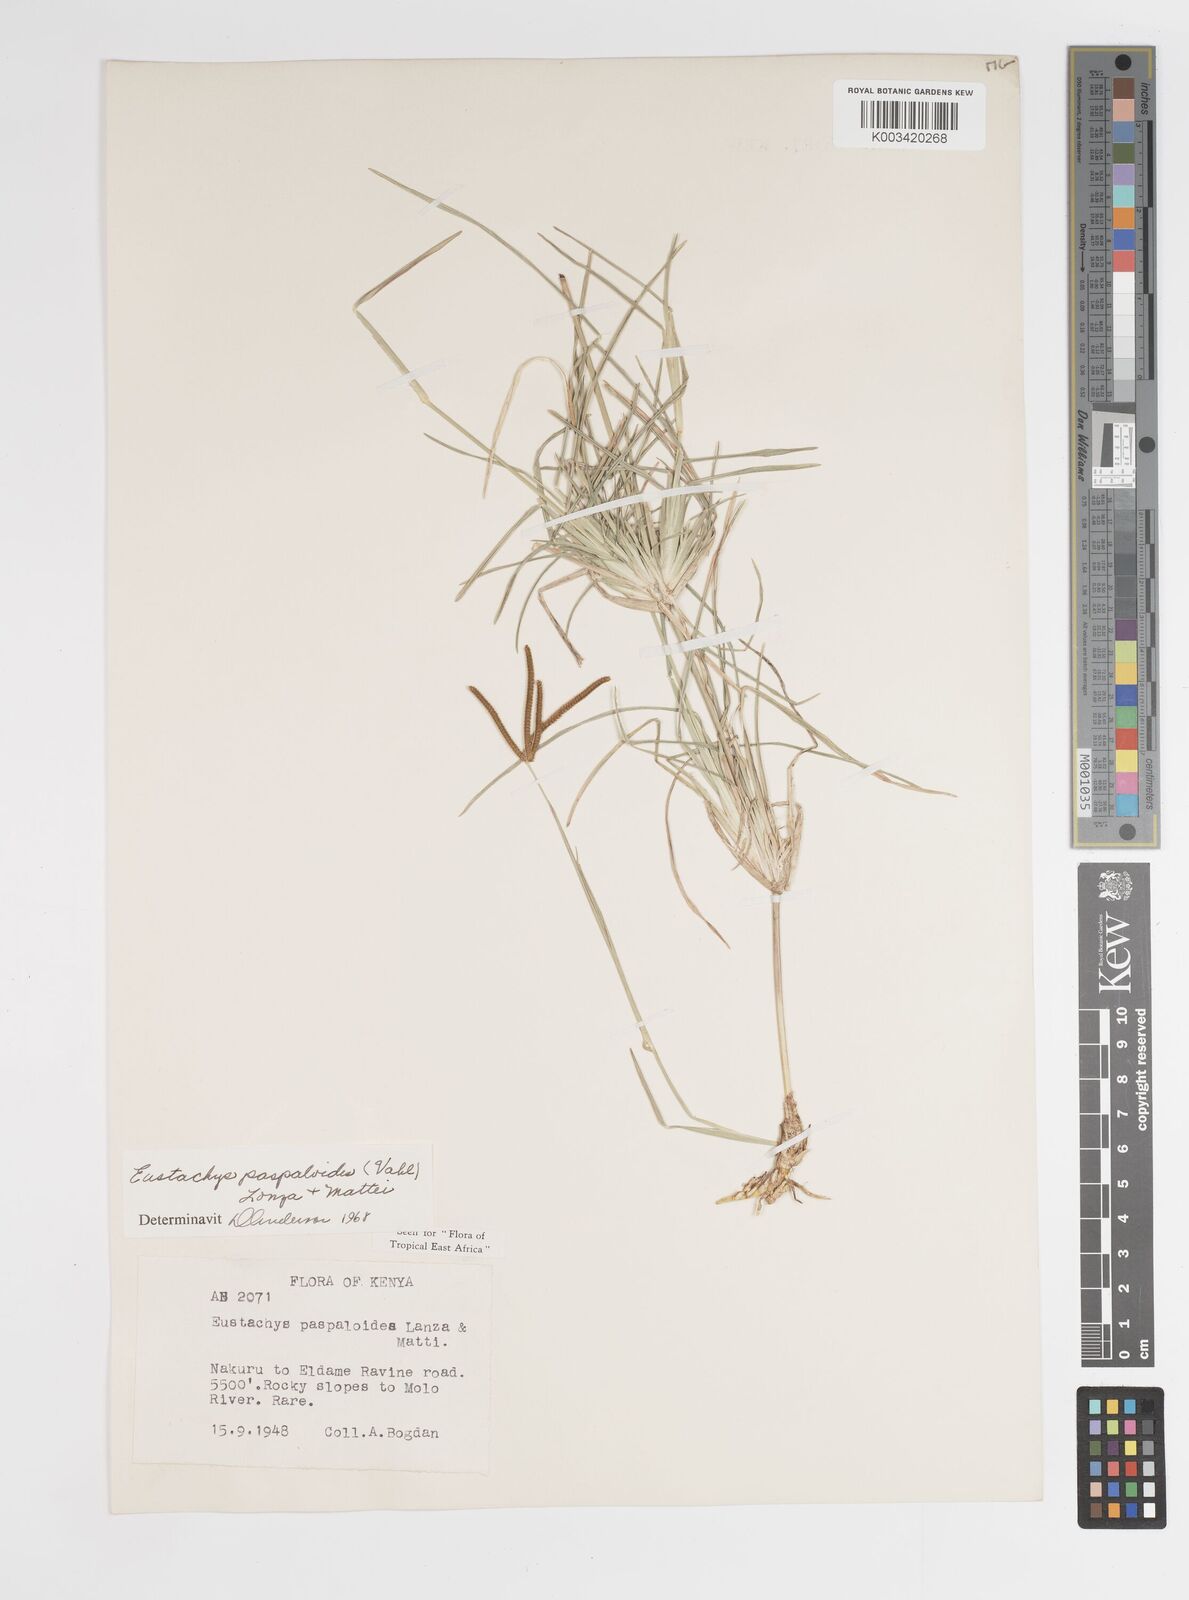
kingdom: Plantae
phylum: Tracheophyta
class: Liliopsida
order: Poales
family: Poaceae
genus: Eustachys
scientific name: Eustachys paspaloides
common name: Caribbean fingergrass
